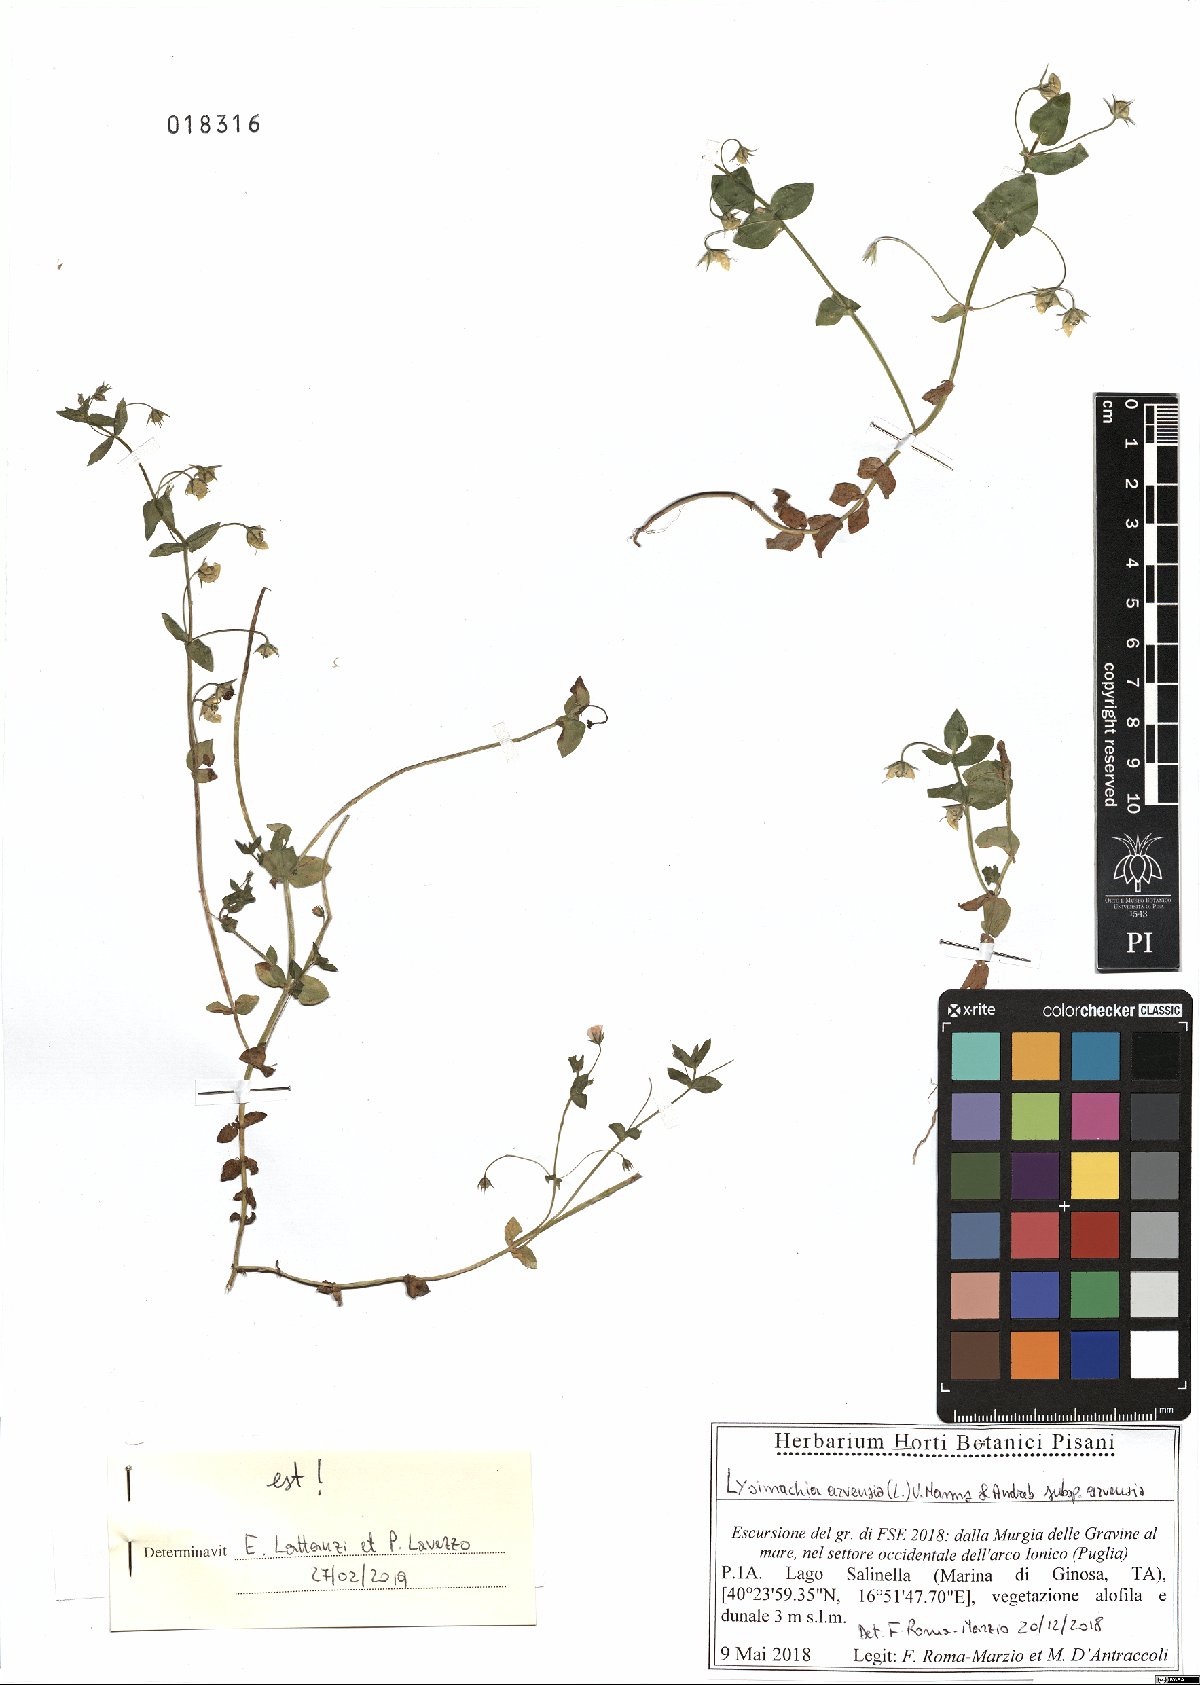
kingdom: Plantae
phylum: Tracheophyta
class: Magnoliopsida
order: Ericales
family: Primulaceae
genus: Lysimachia
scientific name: Lysimachia arvensis
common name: Scarlet pimpernel
